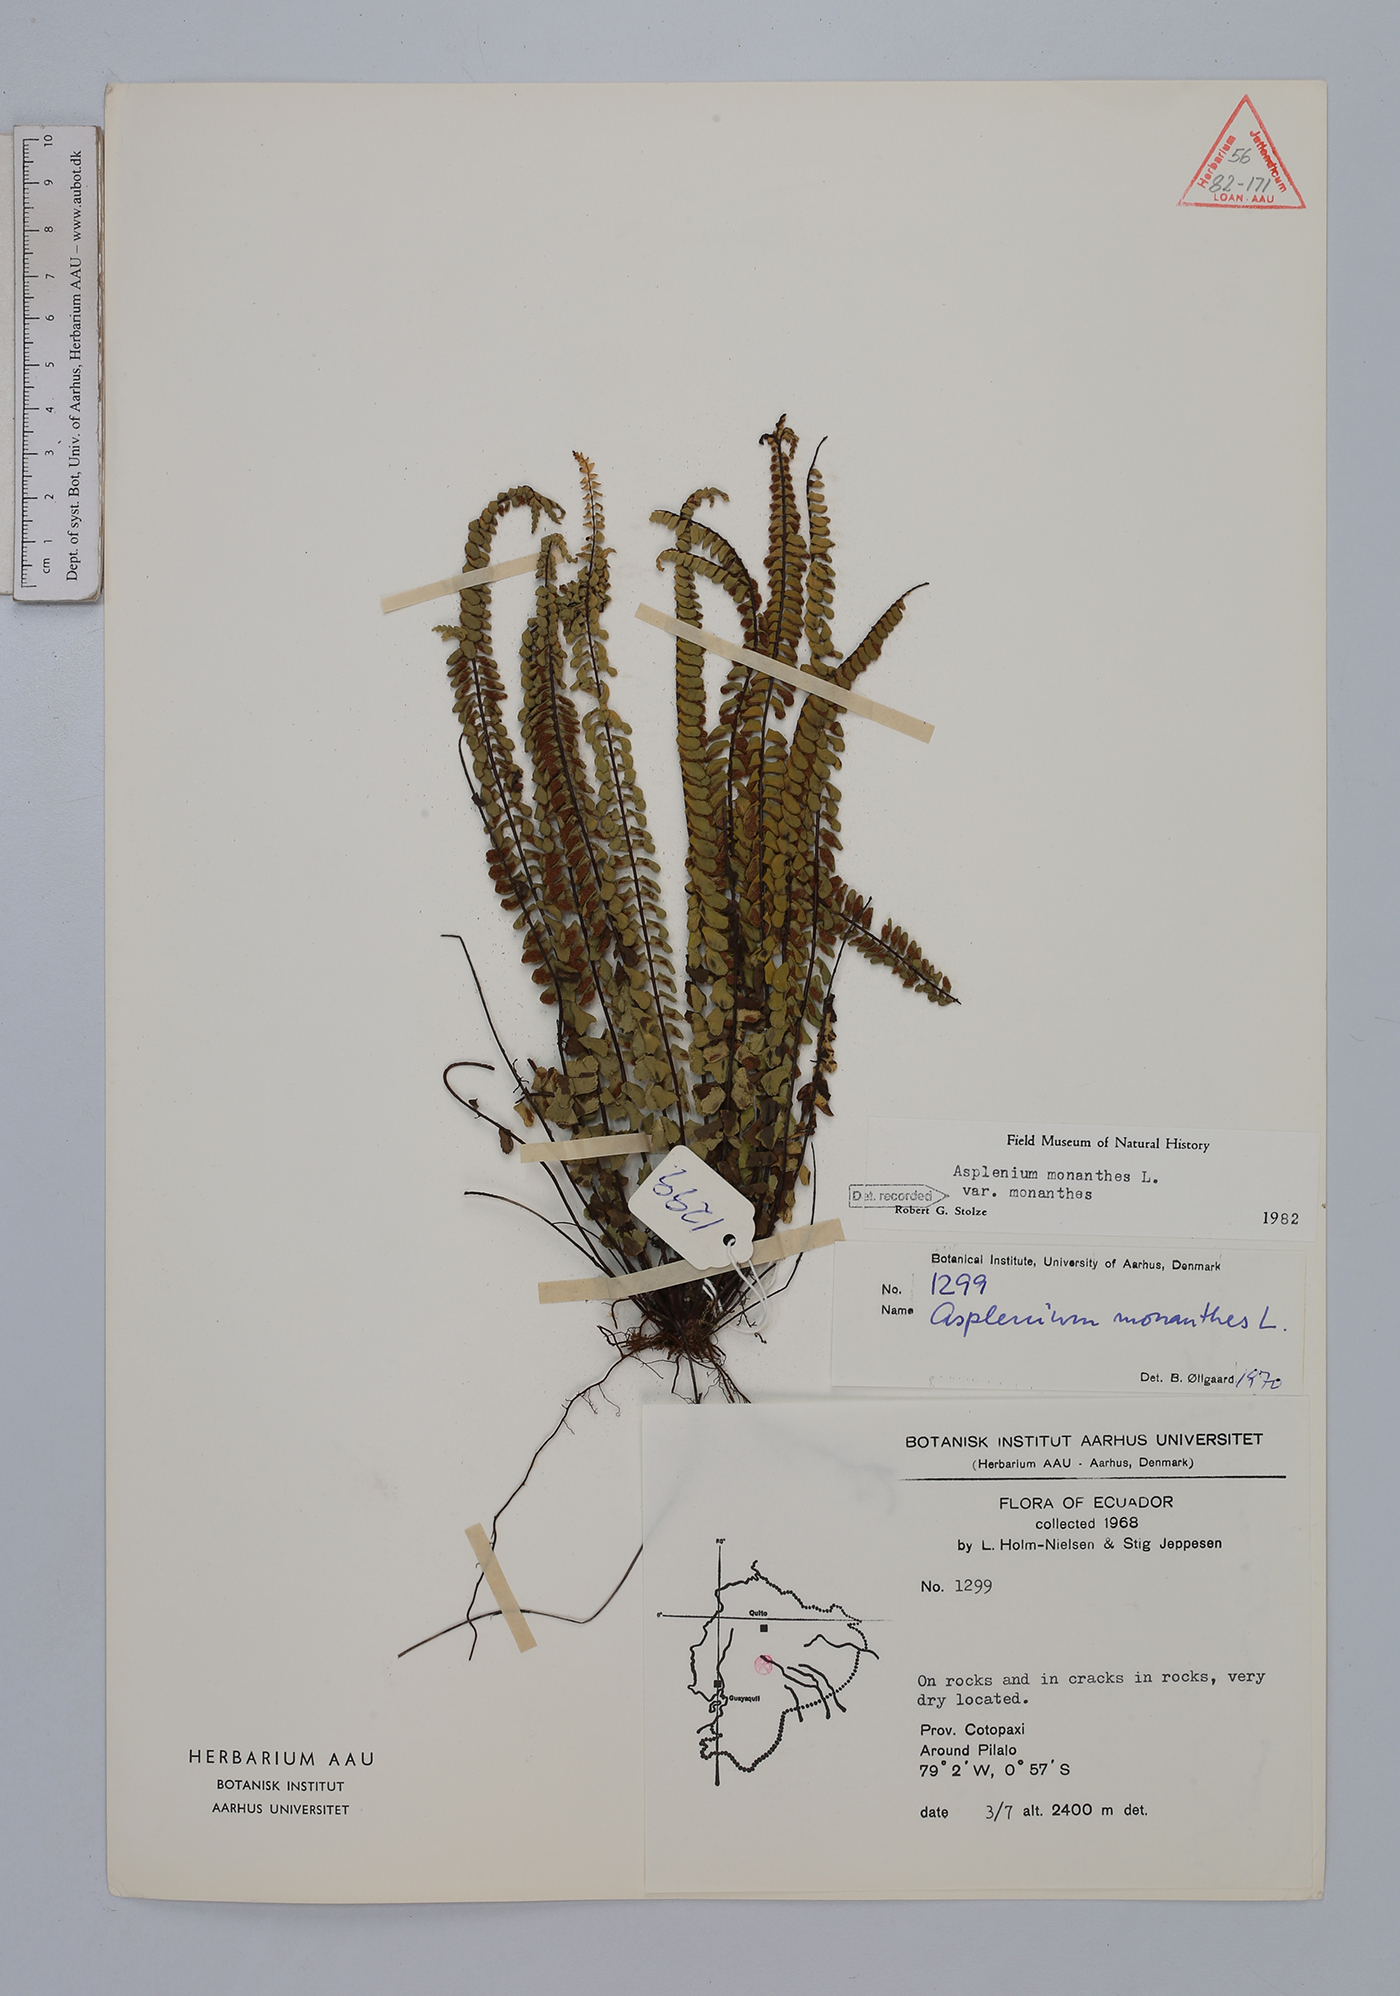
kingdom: Plantae
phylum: Tracheophyta
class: Polypodiopsida
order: Polypodiales
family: Aspleniaceae
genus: Asplenium
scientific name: Asplenium monanthes
